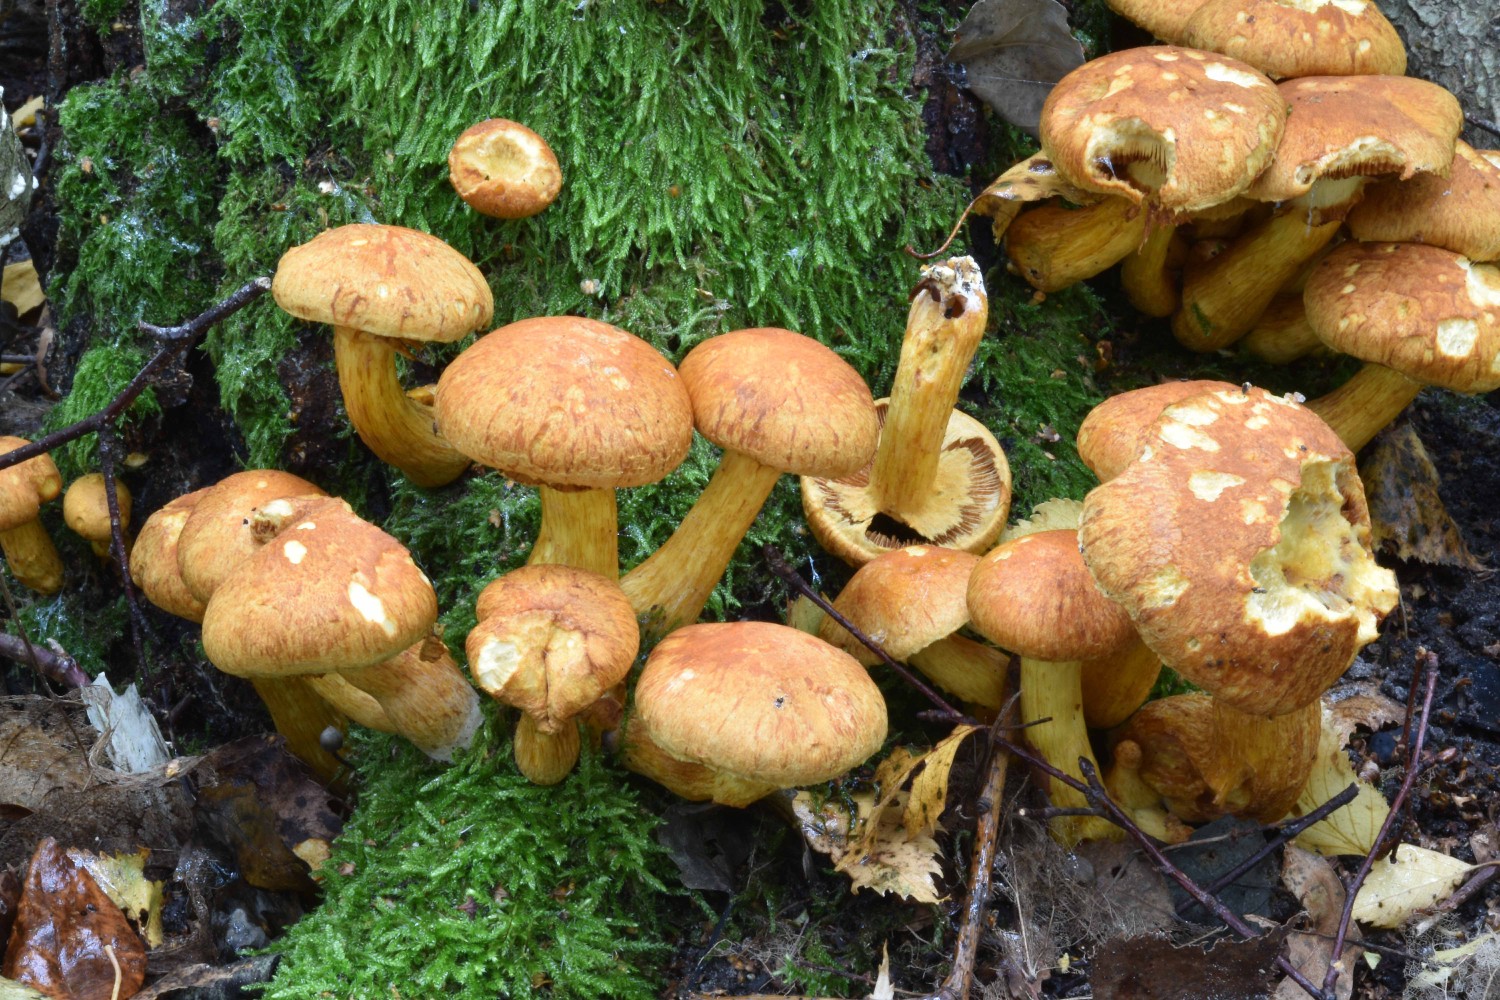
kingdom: Fungi
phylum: Basidiomycota
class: Agaricomycetes
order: Agaricales
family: Hymenogastraceae
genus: Gymnopilus
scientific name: Gymnopilus spectabilis
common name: fibret flammehat
